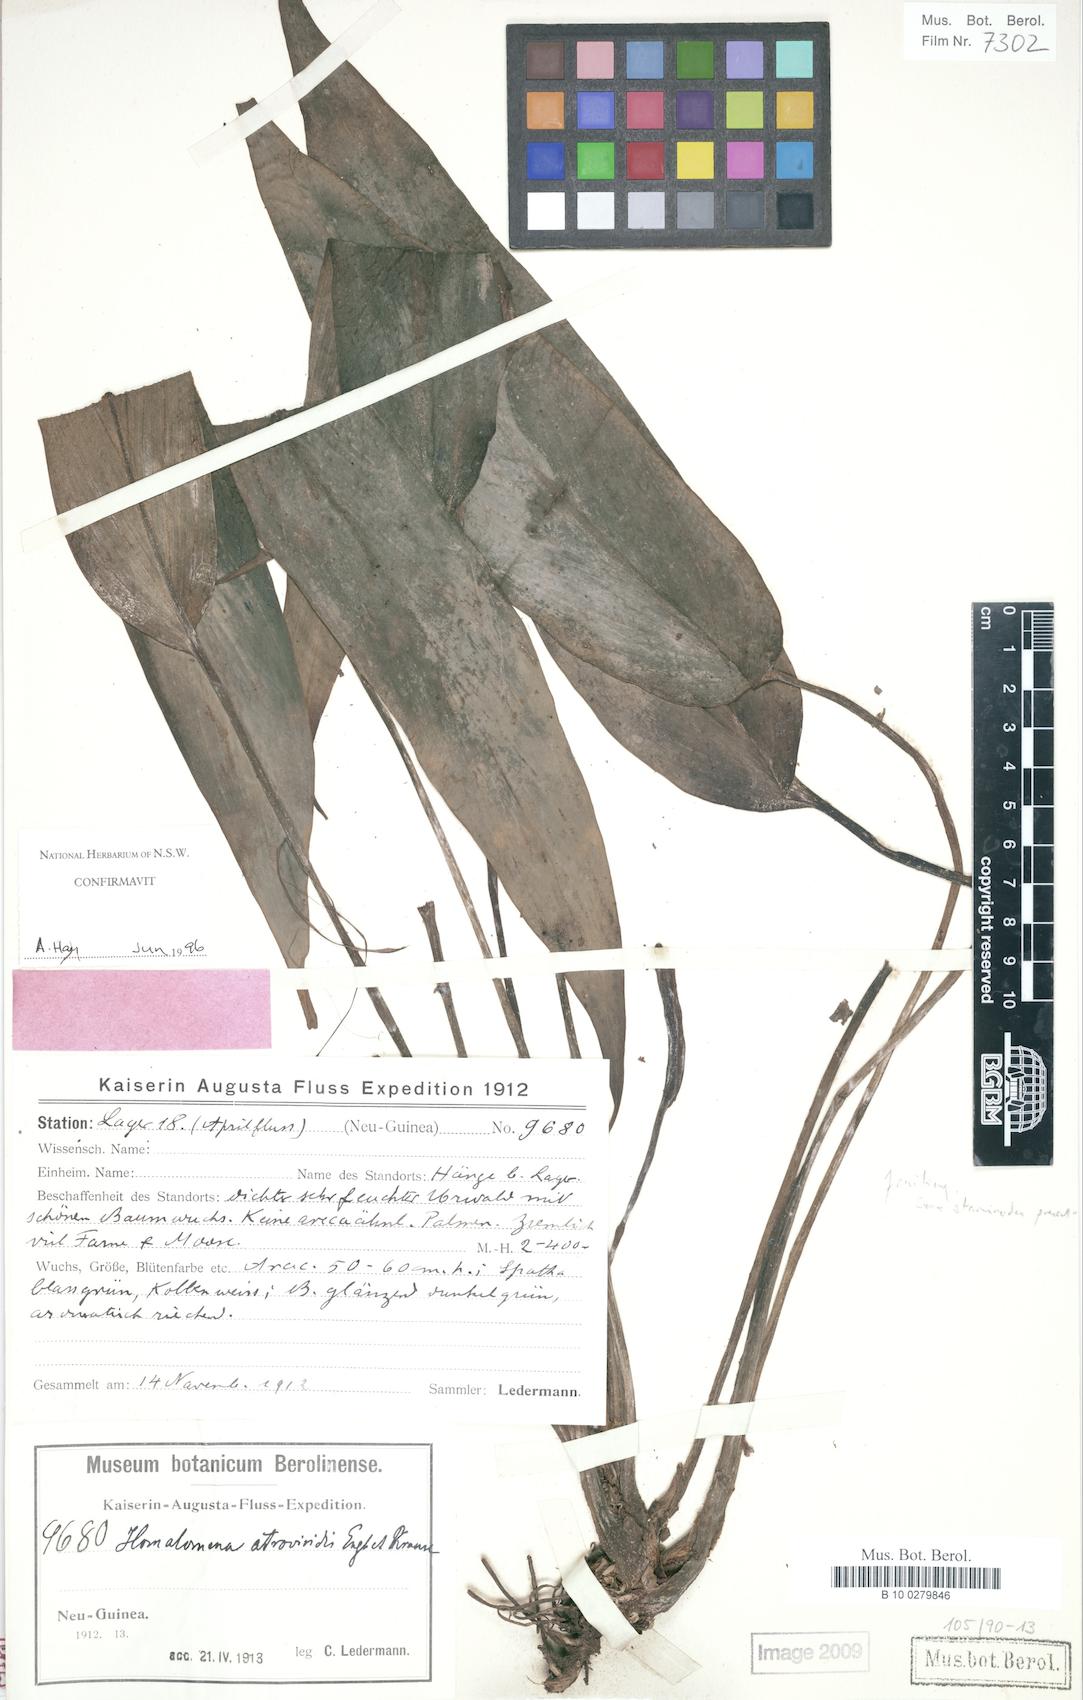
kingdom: Plantae
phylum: Tracheophyta
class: Liliopsida
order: Alismatales
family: Araceae
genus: Homalomena
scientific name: Homalomena atroviridis
